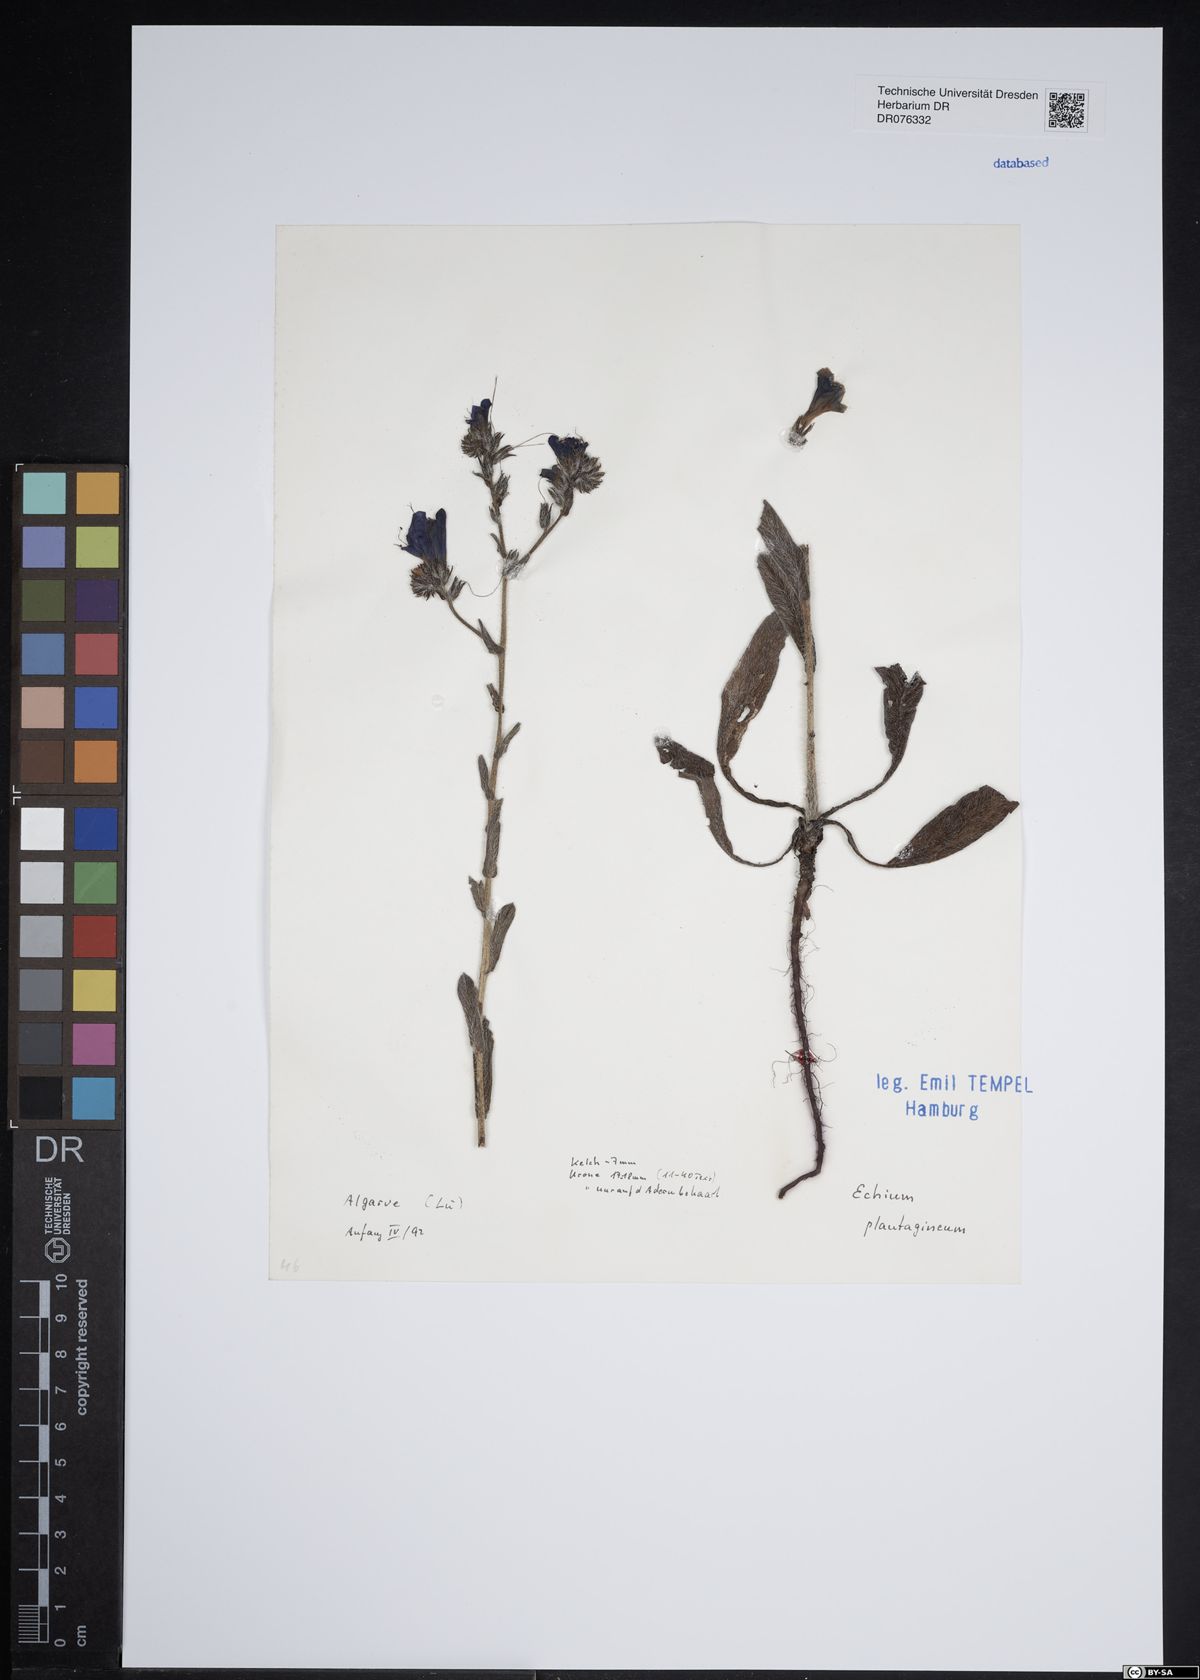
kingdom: Plantae
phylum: Tracheophyta
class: Magnoliopsida
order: Boraginales
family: Boraginaceae
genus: Echium
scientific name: Echium plantagineum
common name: Purple viper's-bugloss
